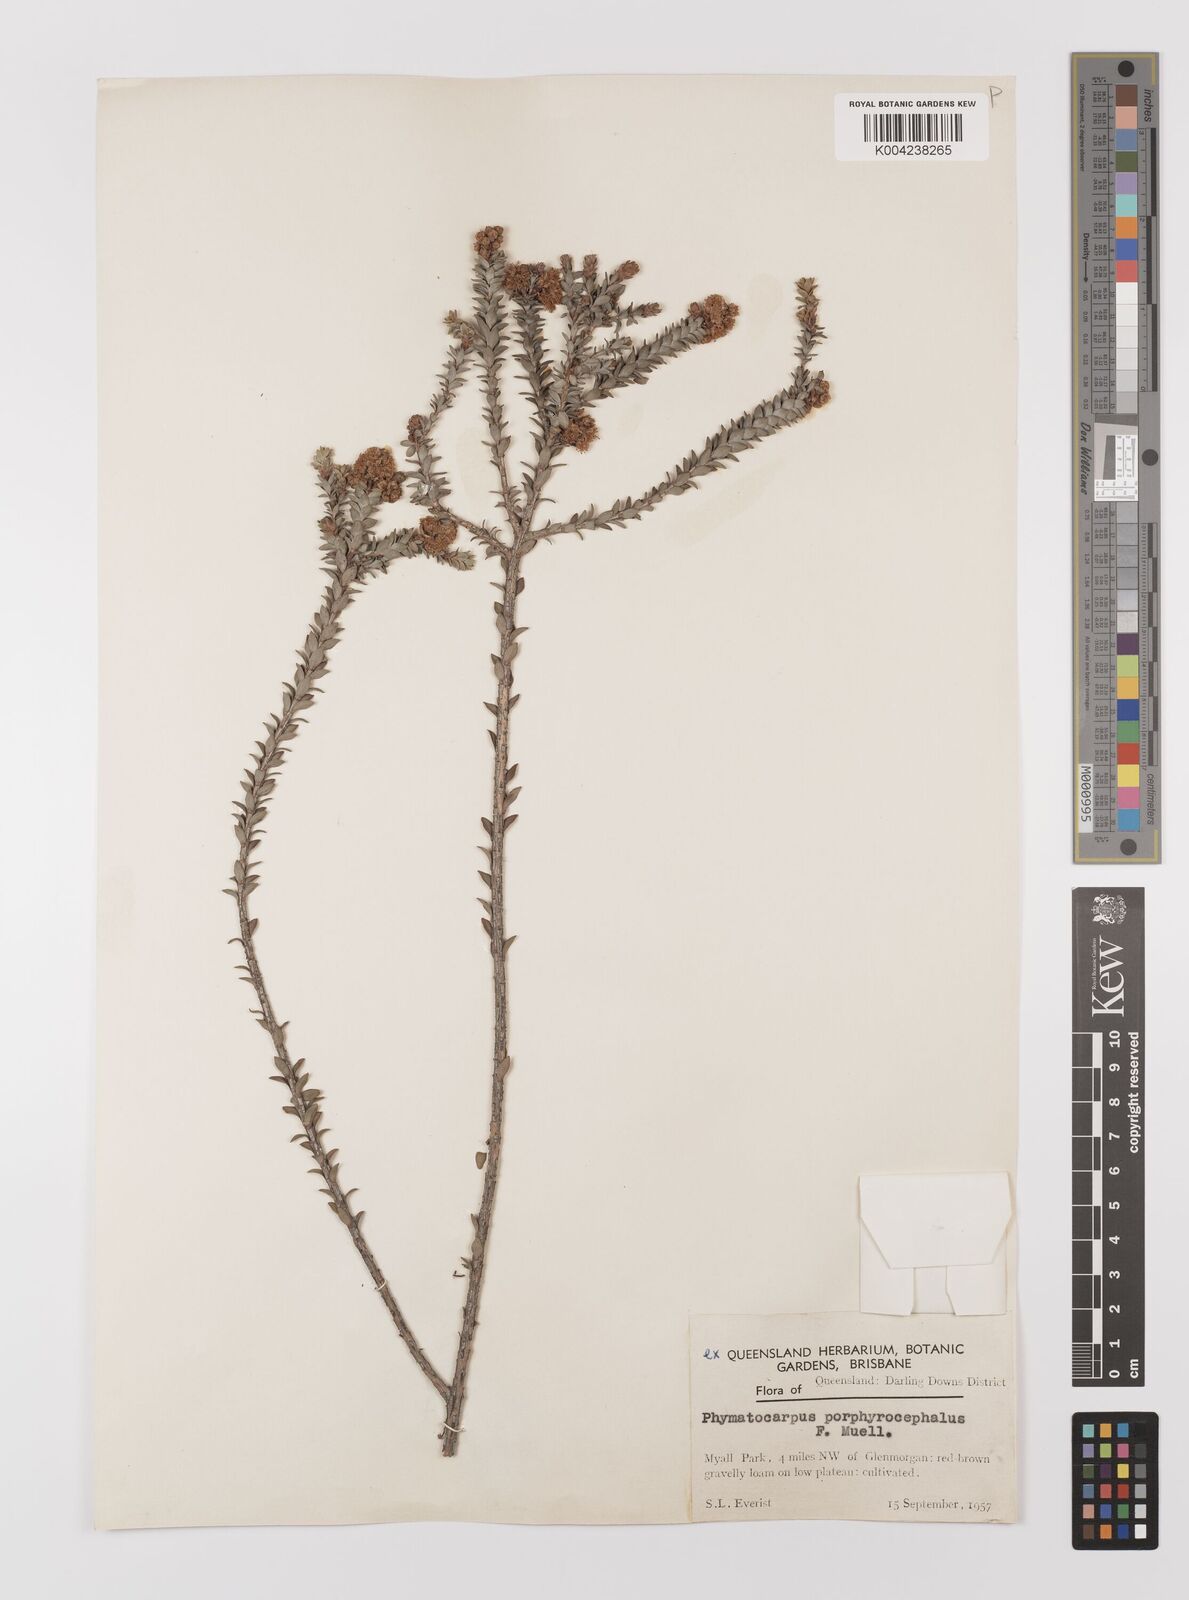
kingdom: Plantae
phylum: Tracheophyta
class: Magnoliopsida
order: Myrtales
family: Myrtaceae
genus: Melaleuca
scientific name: Melaleuca porphyrocephala
